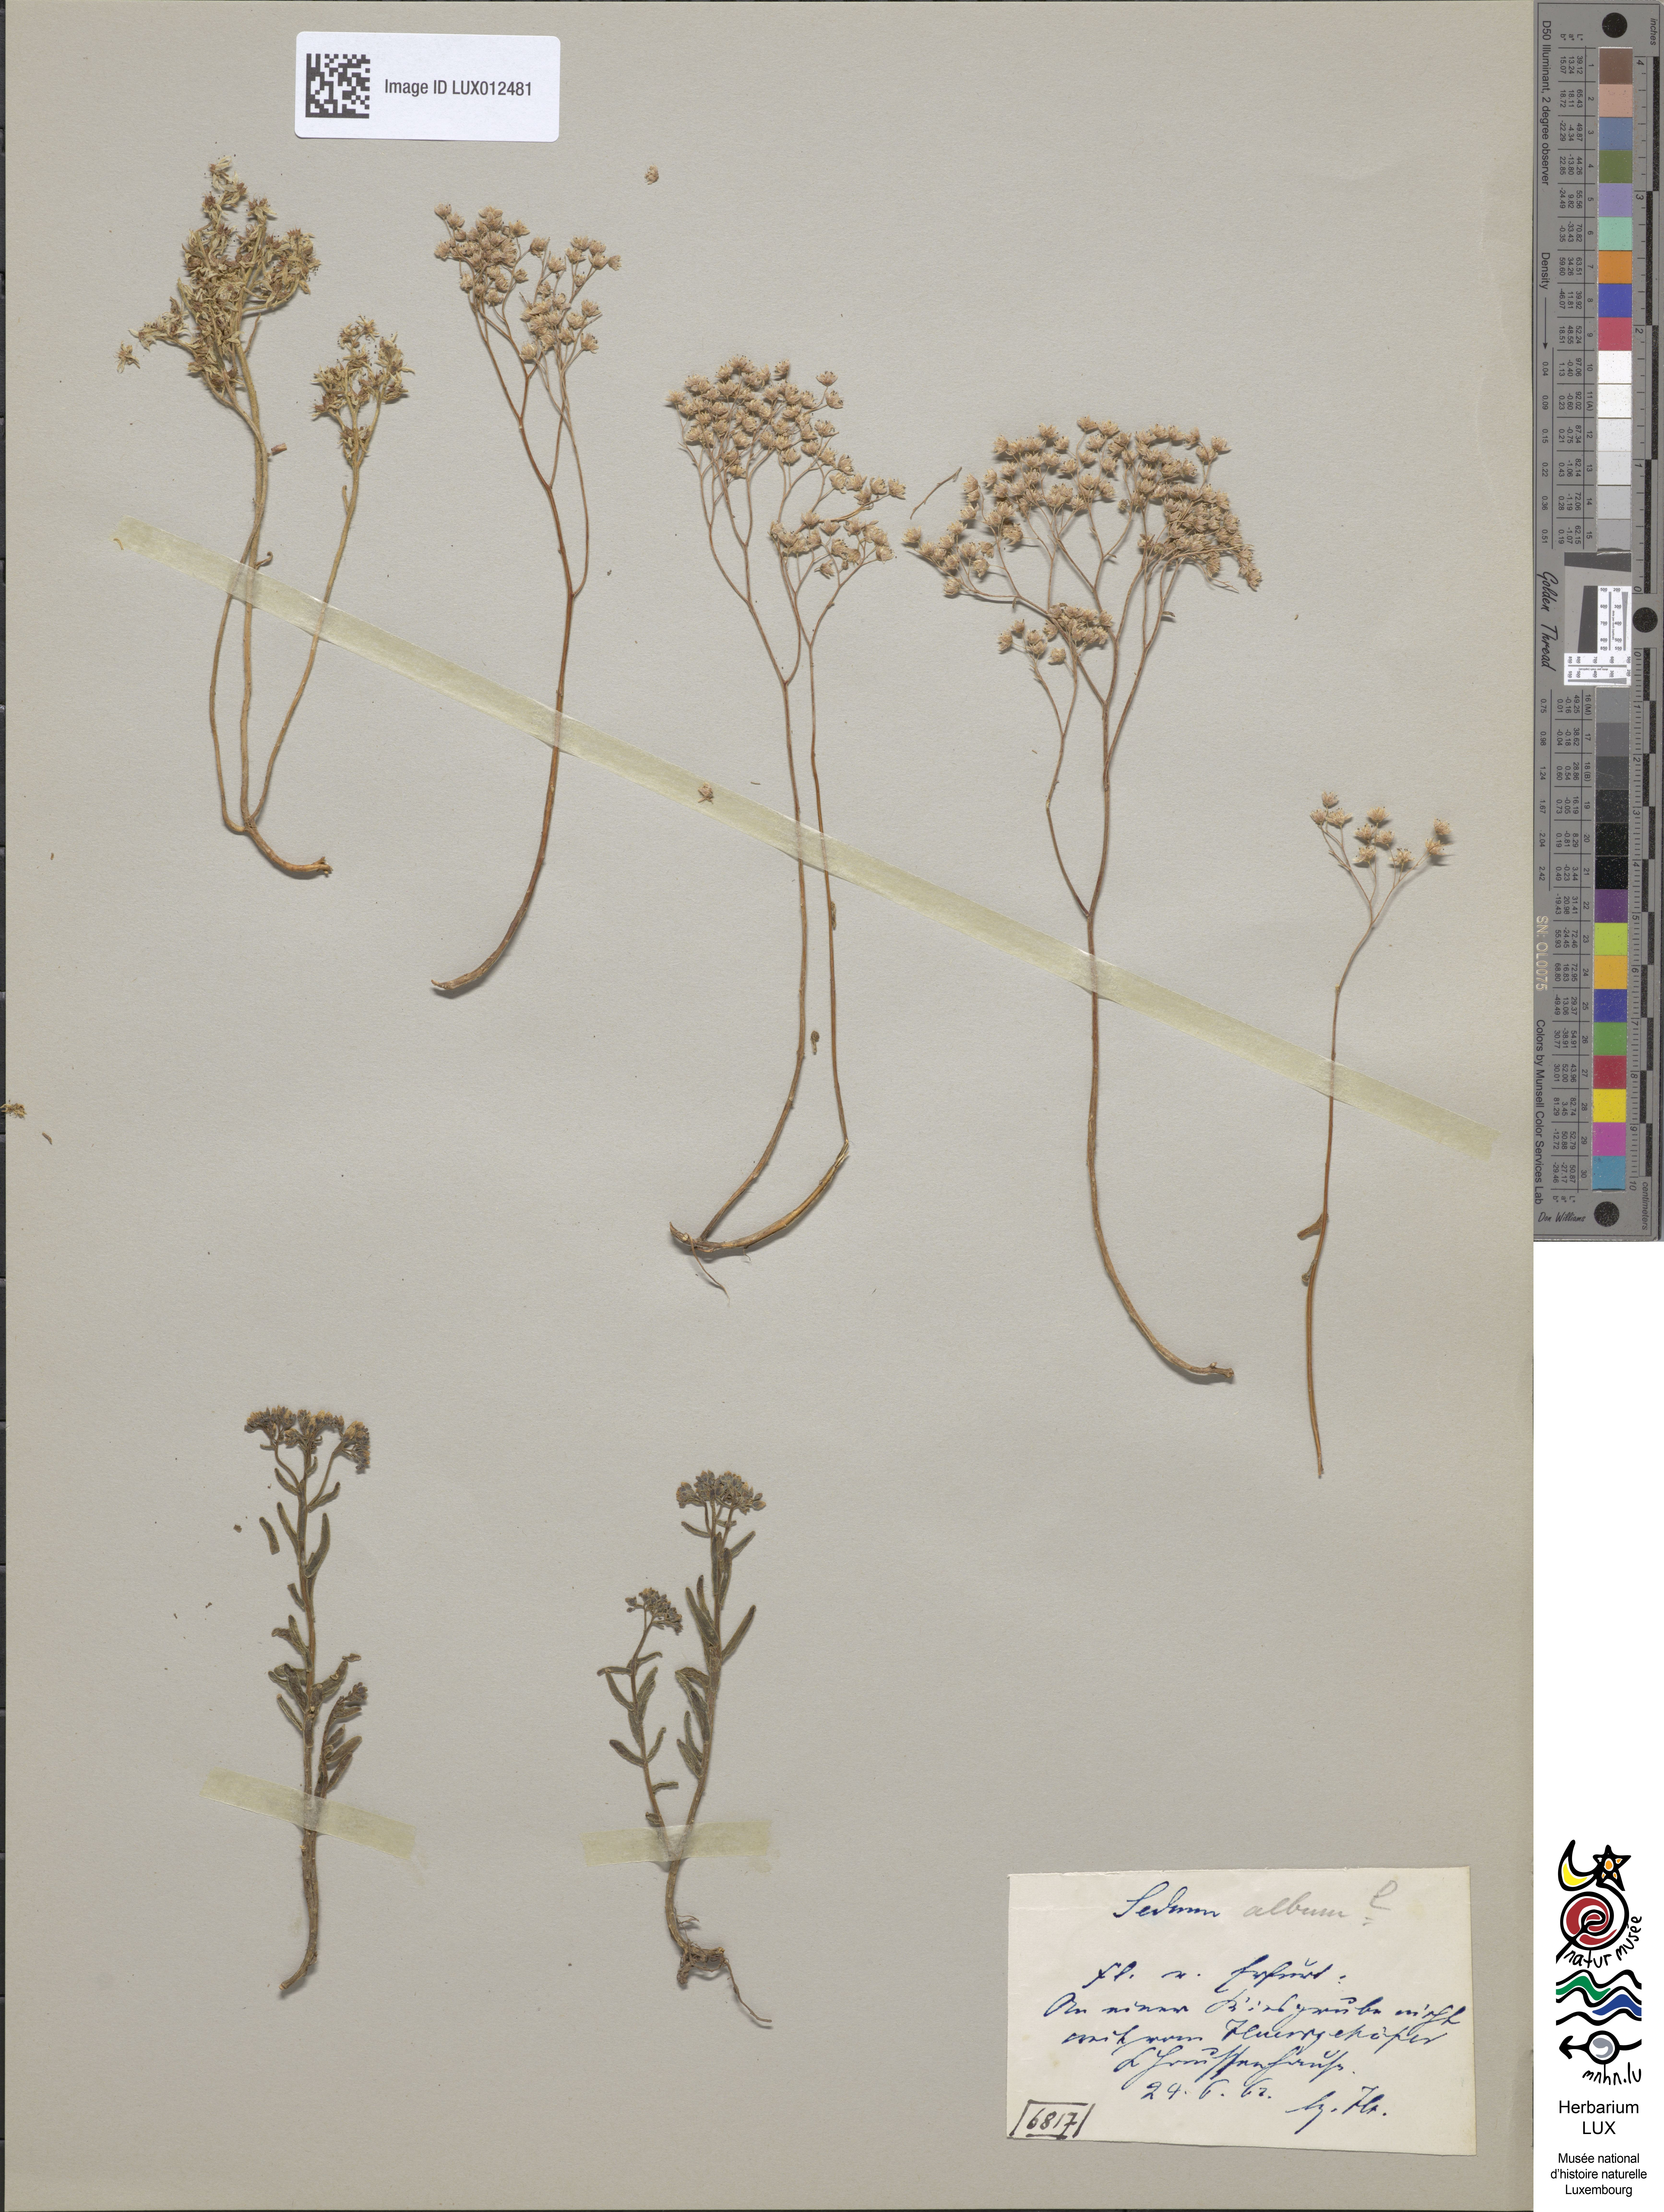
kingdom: Plantae
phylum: Tracheophyta
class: Magnoliopsida
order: Saxifragales
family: Crassulaceae
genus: Sedum
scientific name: Sedum album
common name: White stonecrop
